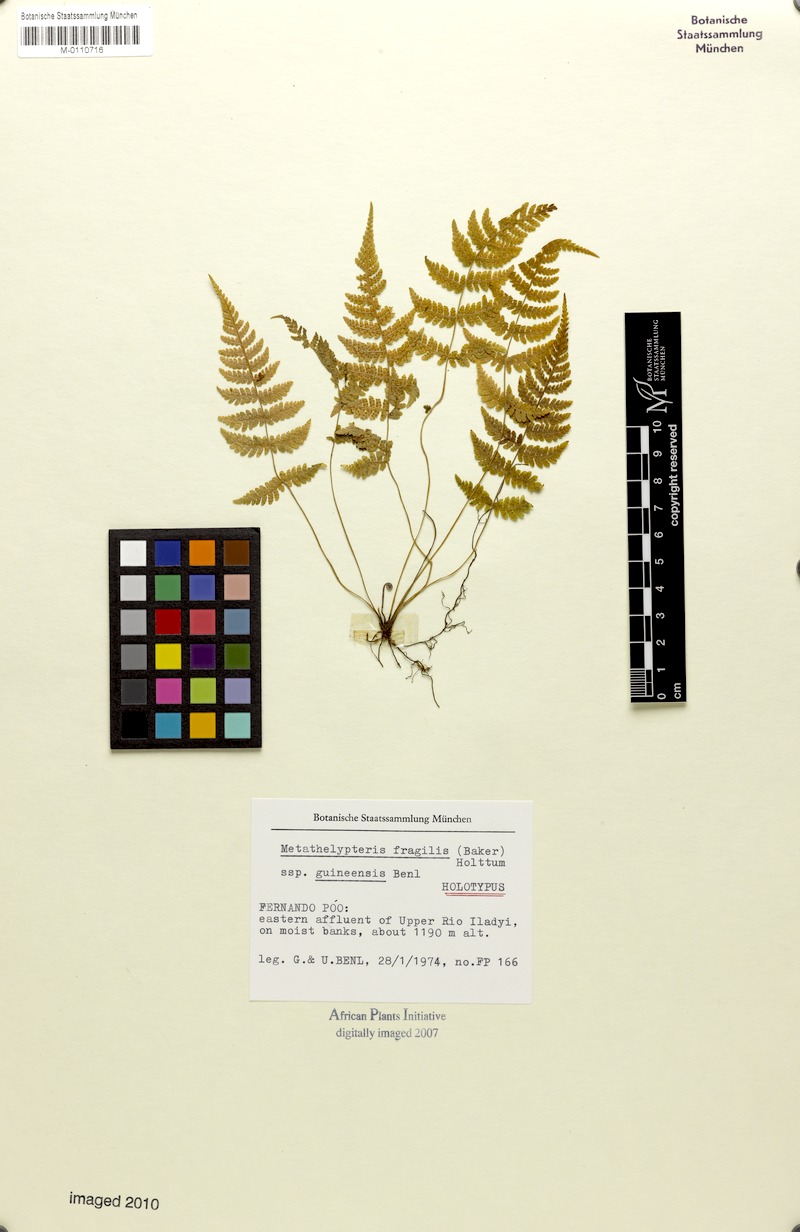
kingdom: Plantae
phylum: Tracheophyta
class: Polypodiopsida
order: Polypodiales
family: Thelypteridaceae
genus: Metathelypteris
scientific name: Metathelypteris fragilis
